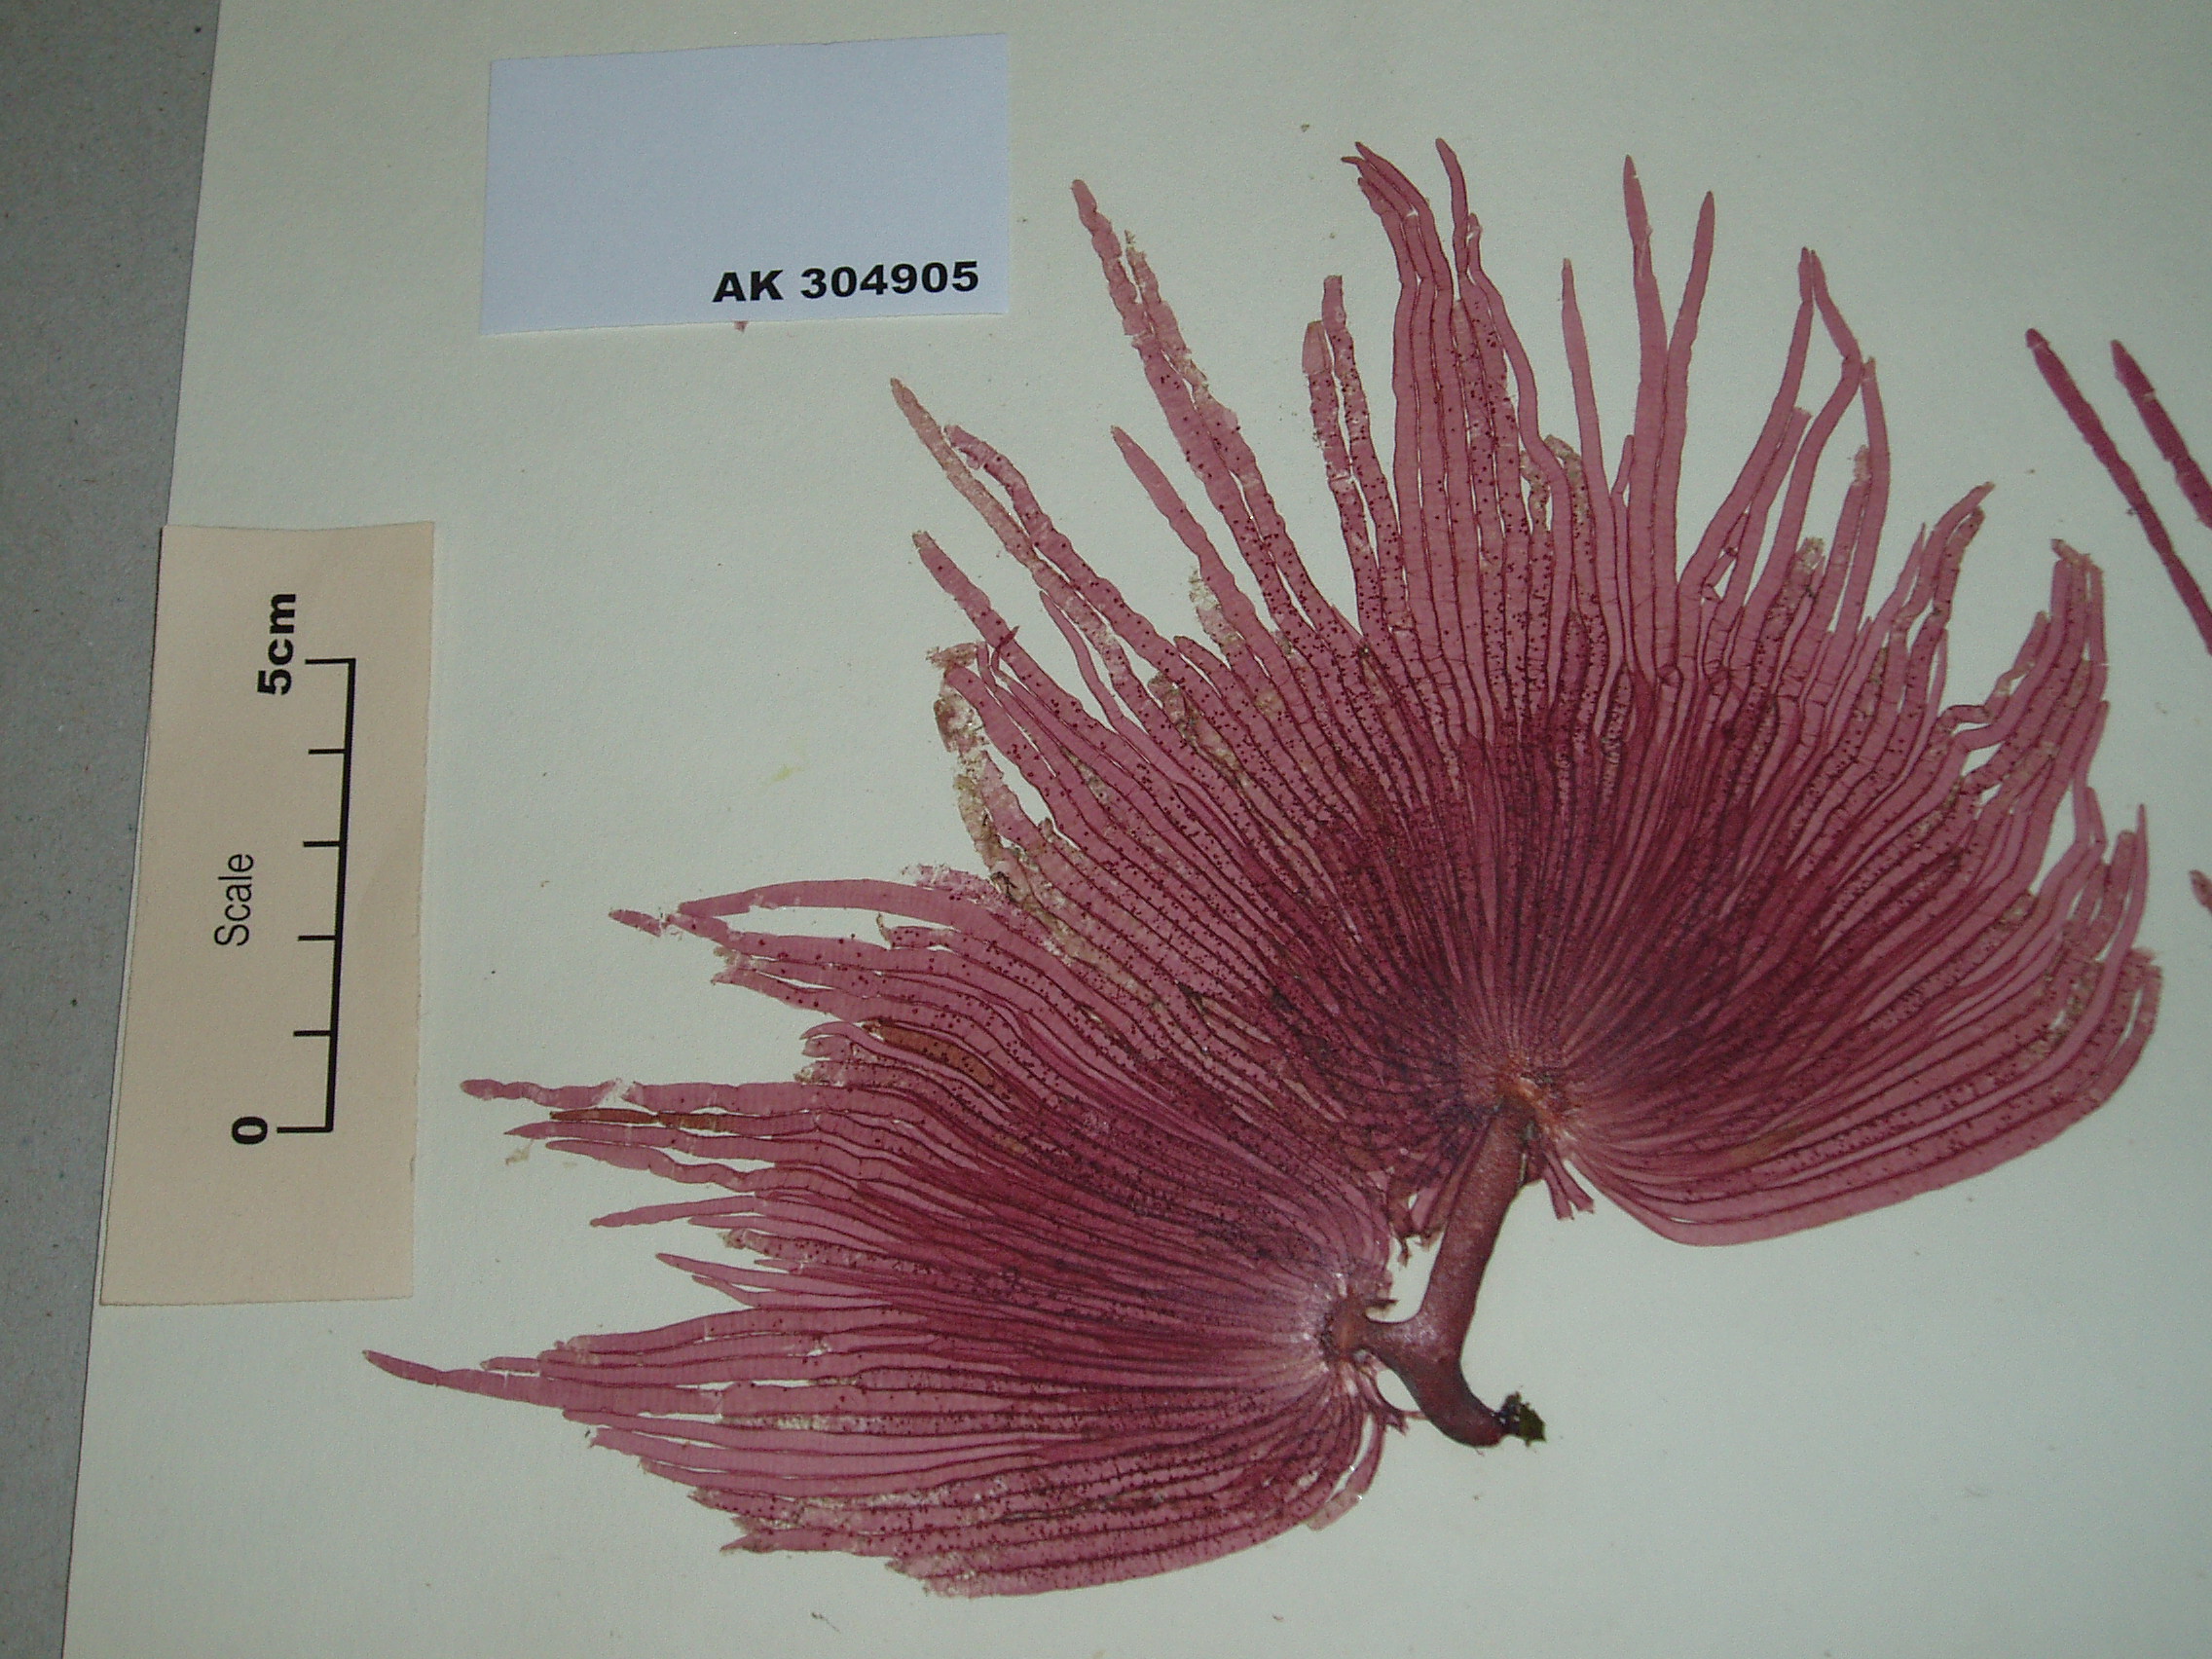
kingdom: Plantae
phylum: Rhodophyta
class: Florideophyceae
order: Gigartinales
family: Pseudoanemoniaceae
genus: Hummbrella
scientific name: Hummbrella hydra
